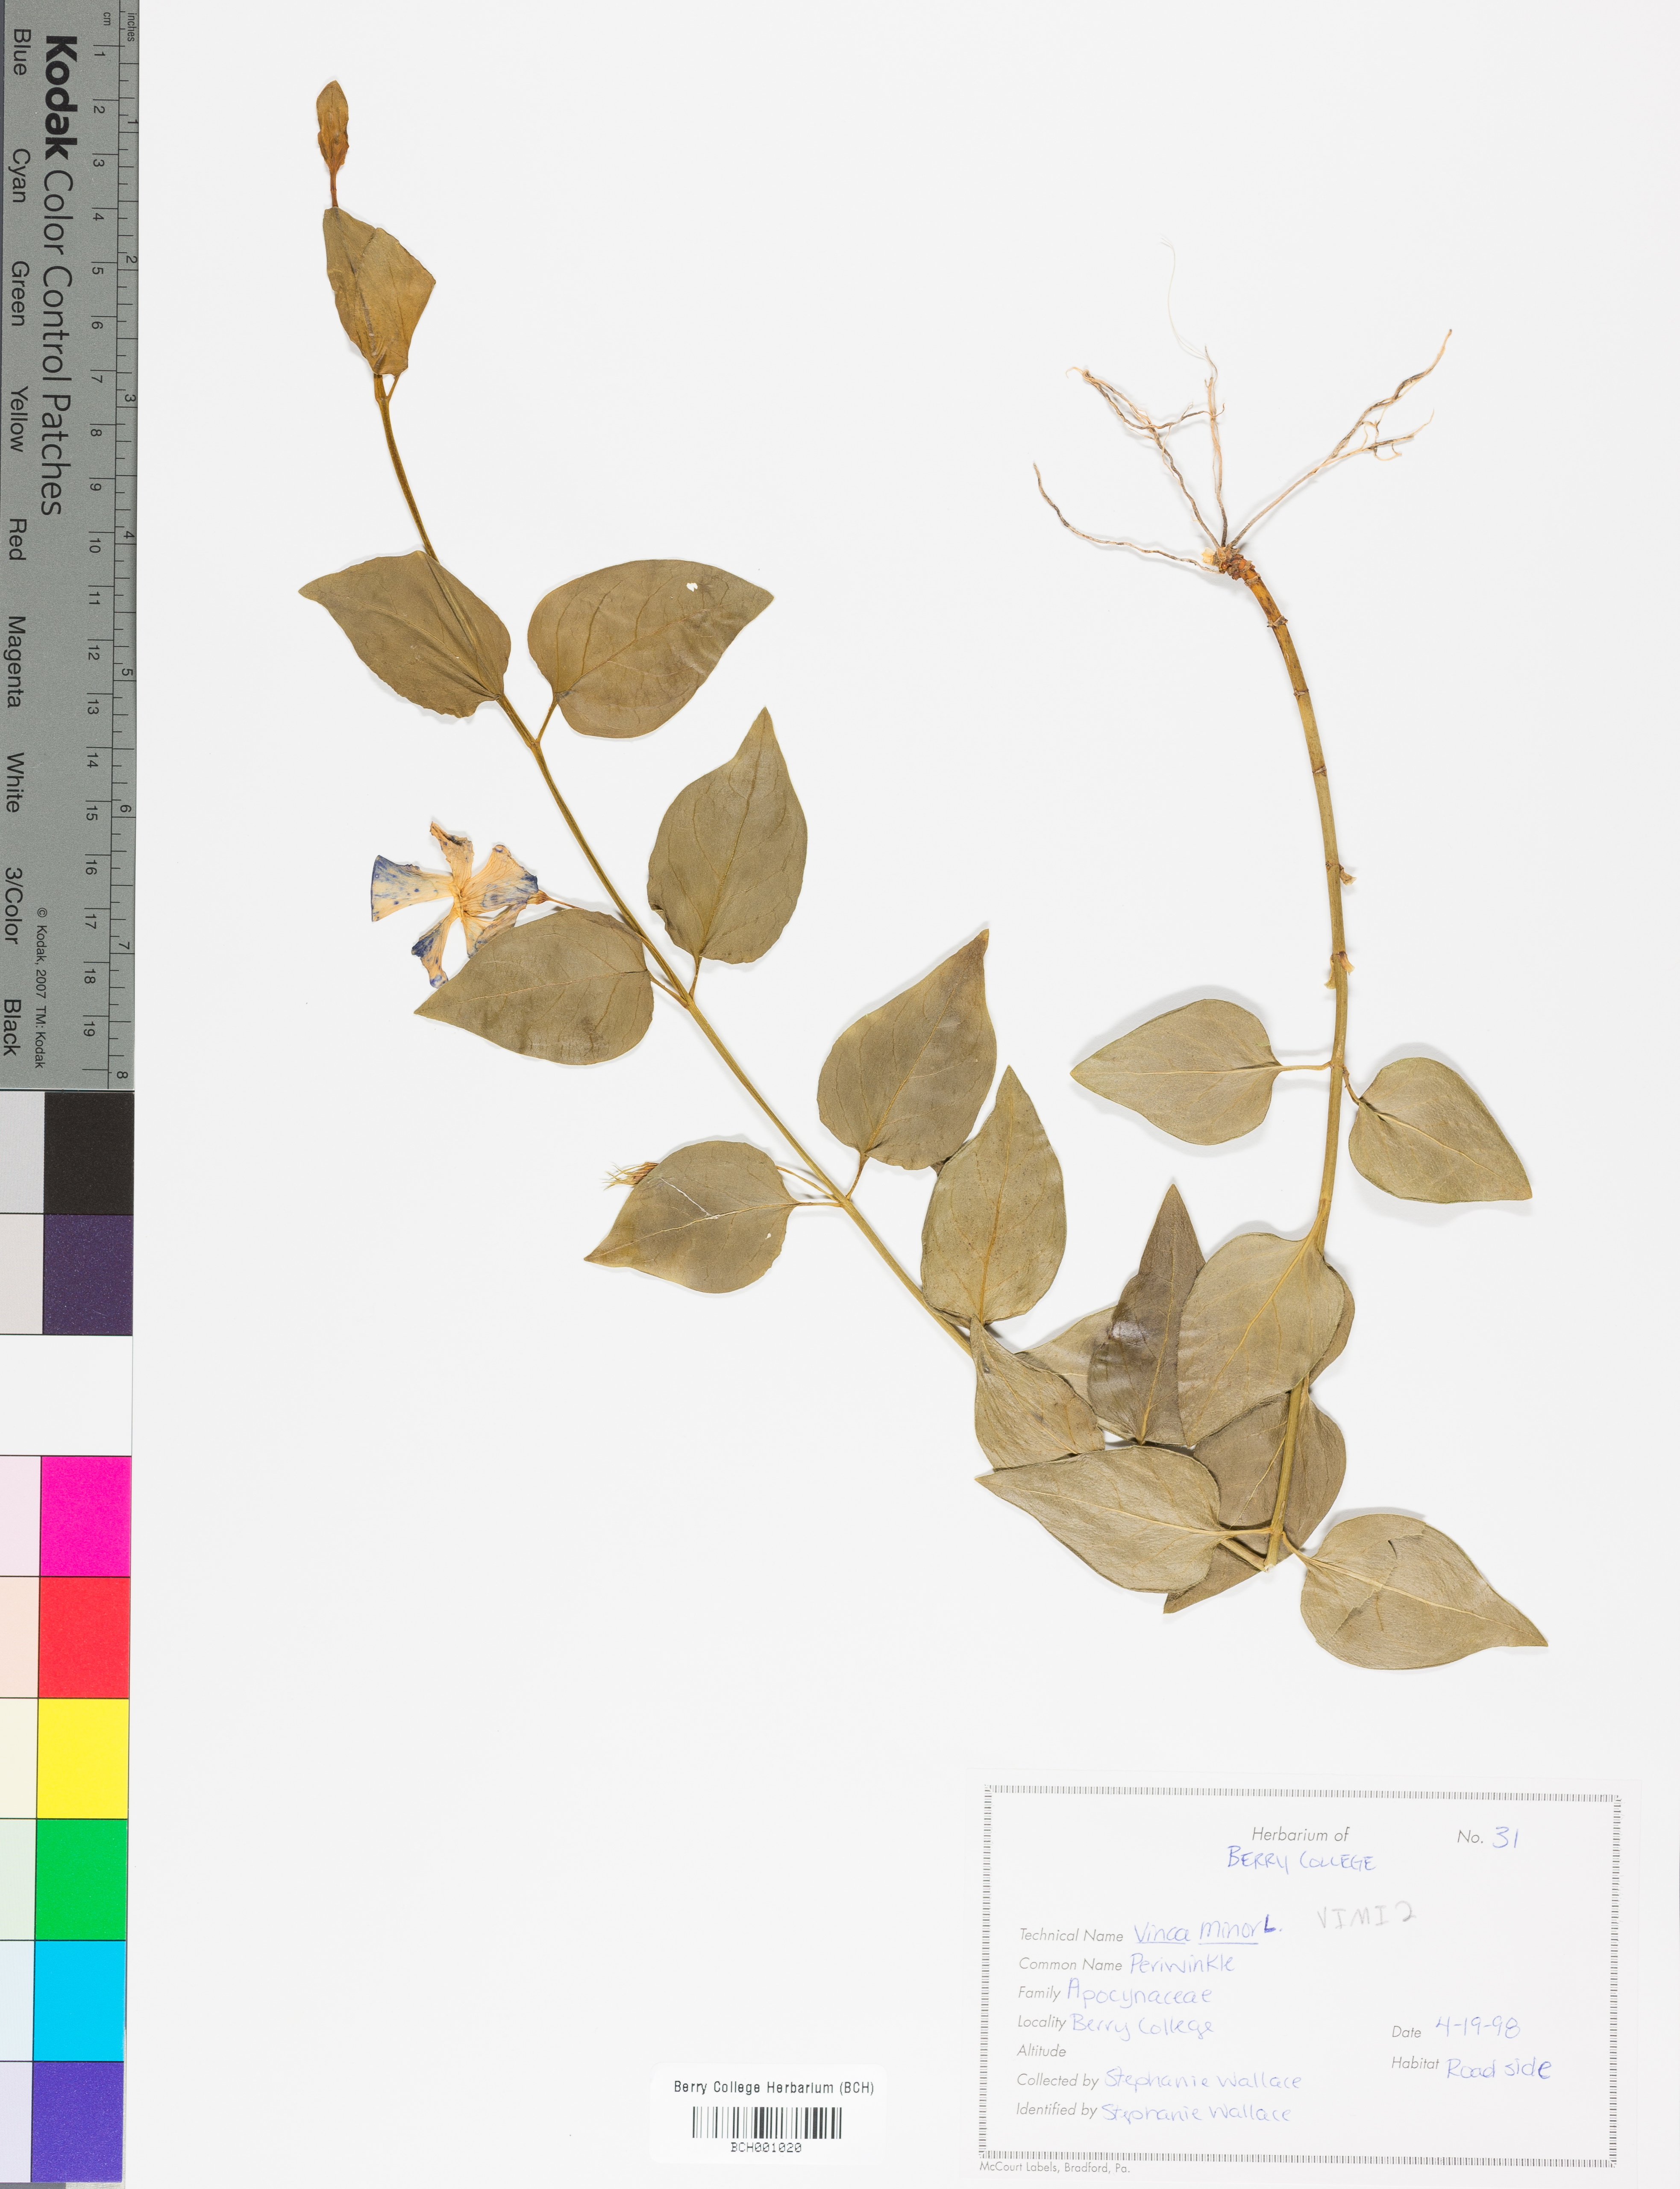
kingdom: Plantae
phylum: Tracheophyta
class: Magnoliopsida
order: Gentianales
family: Apocynaceae
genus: Vinca
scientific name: Vinca minor
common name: Lesser periwinkle
